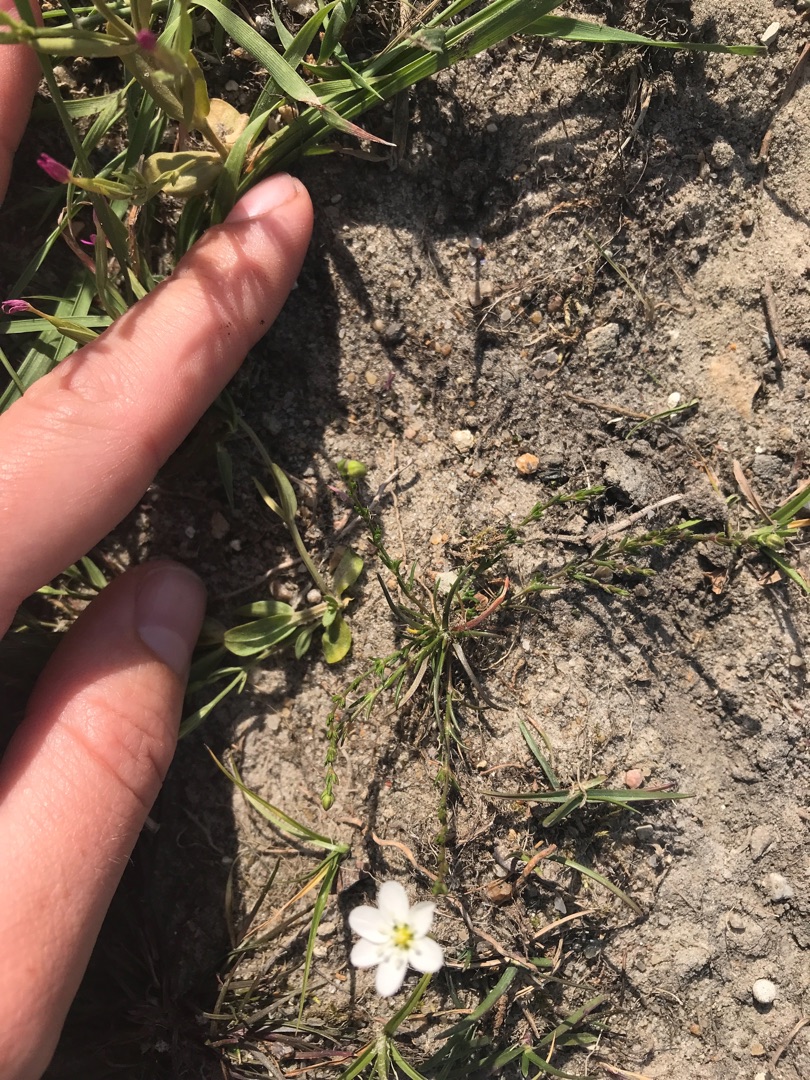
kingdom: Plantae
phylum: Tracheophyta
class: Magnoliopsida
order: Caryophyllales
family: Caryophyllaceae
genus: Sagina
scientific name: Sagina nodosa
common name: Knude-firling
